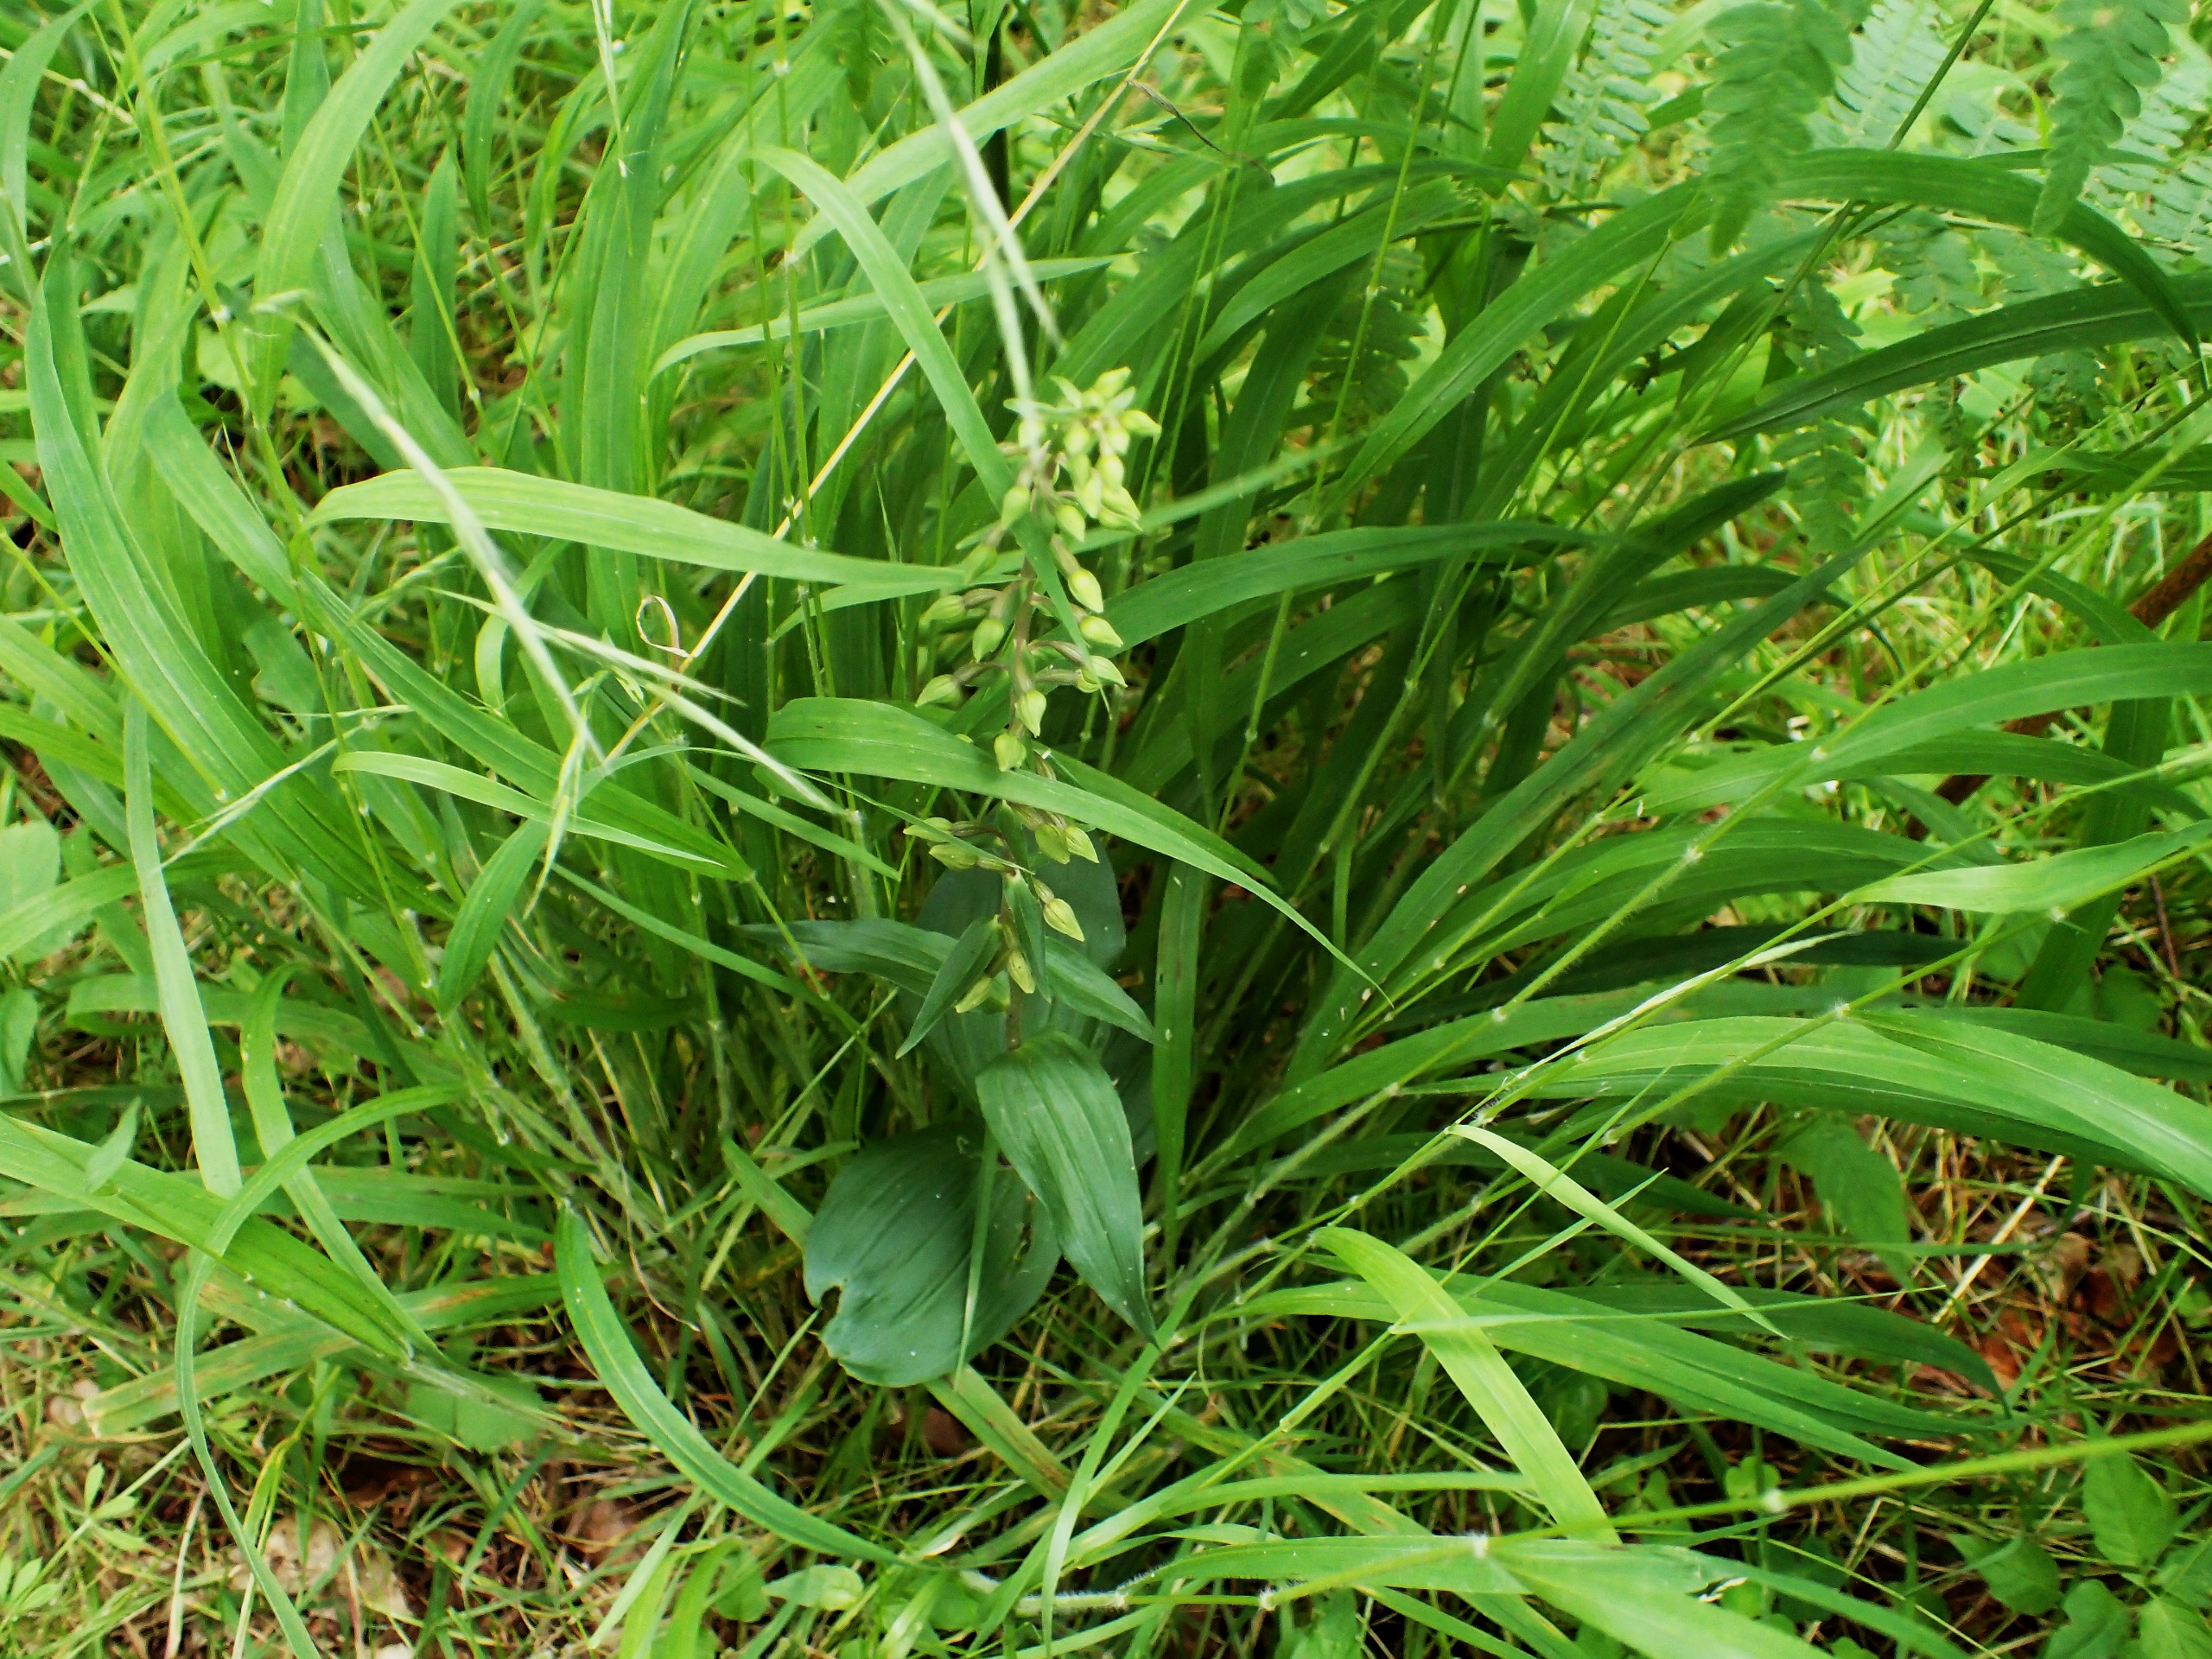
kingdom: Plantae
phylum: Tracheophyta
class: Liliopsida
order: Asparagales
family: Orchidaceae
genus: Epipactis
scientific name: Epipactis helleborine
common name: Skov-hullæbe
